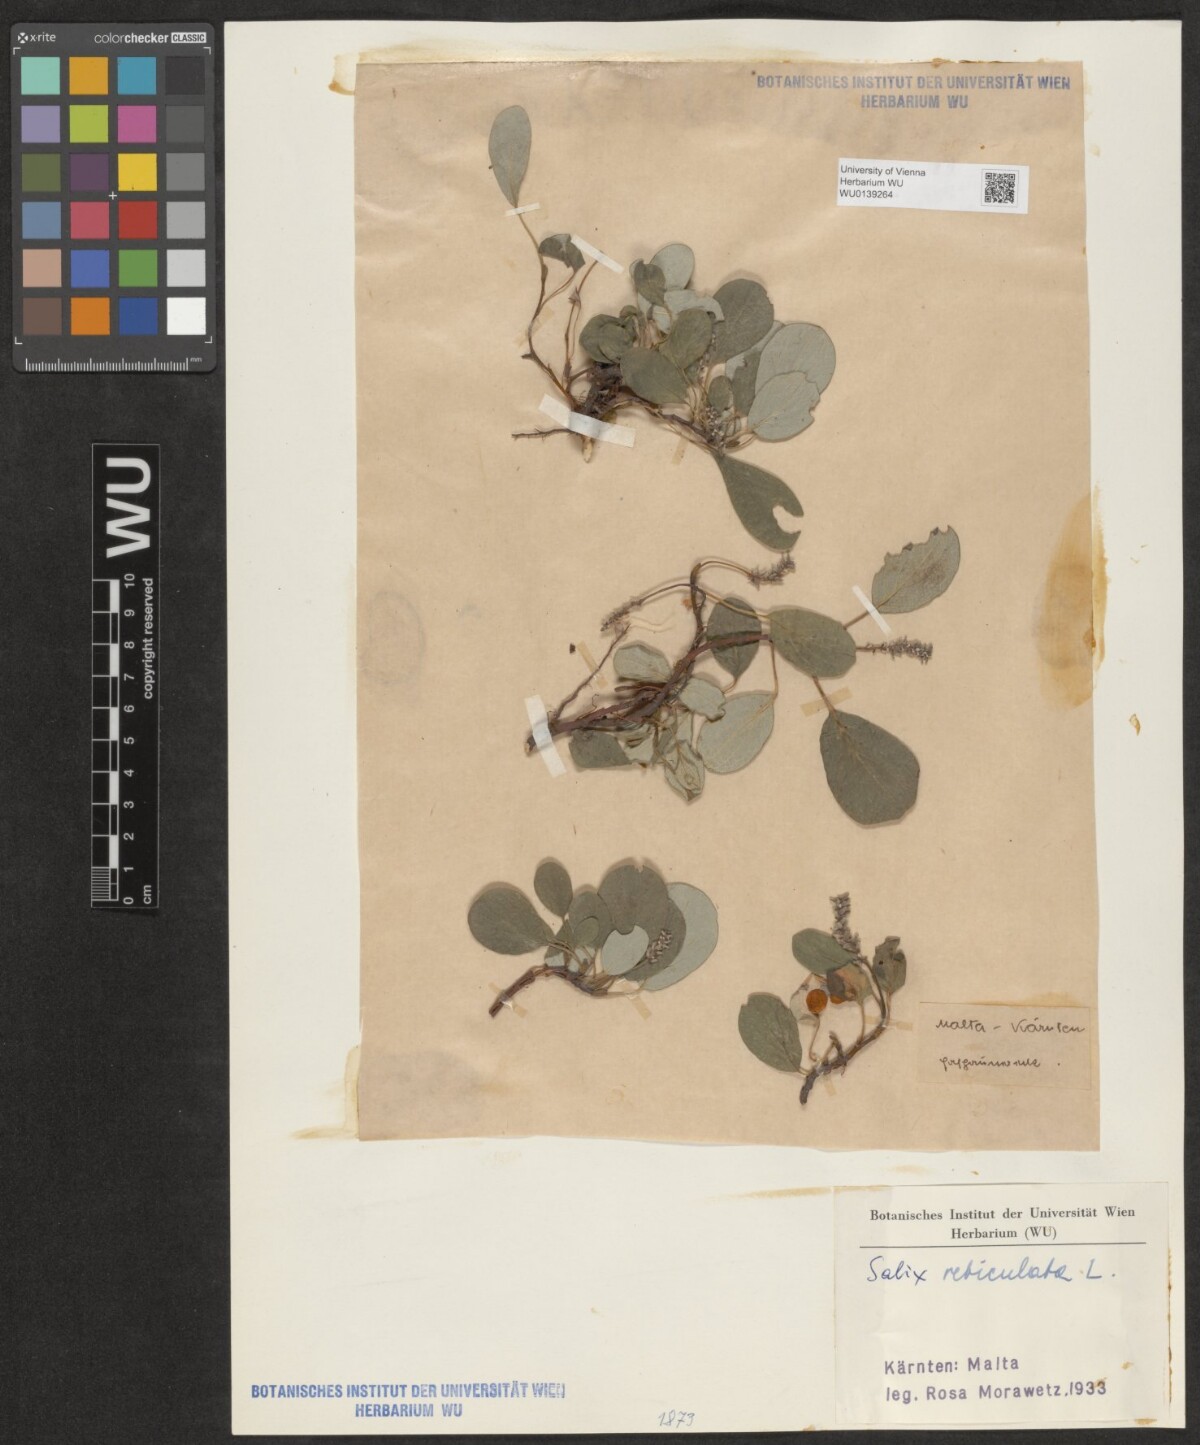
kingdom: Plantae
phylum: Tracheophyta
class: Magnoliopsida
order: Malpighiales
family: Salicaceae
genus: Salix
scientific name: Salix reticulata
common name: Net-leaved willow
